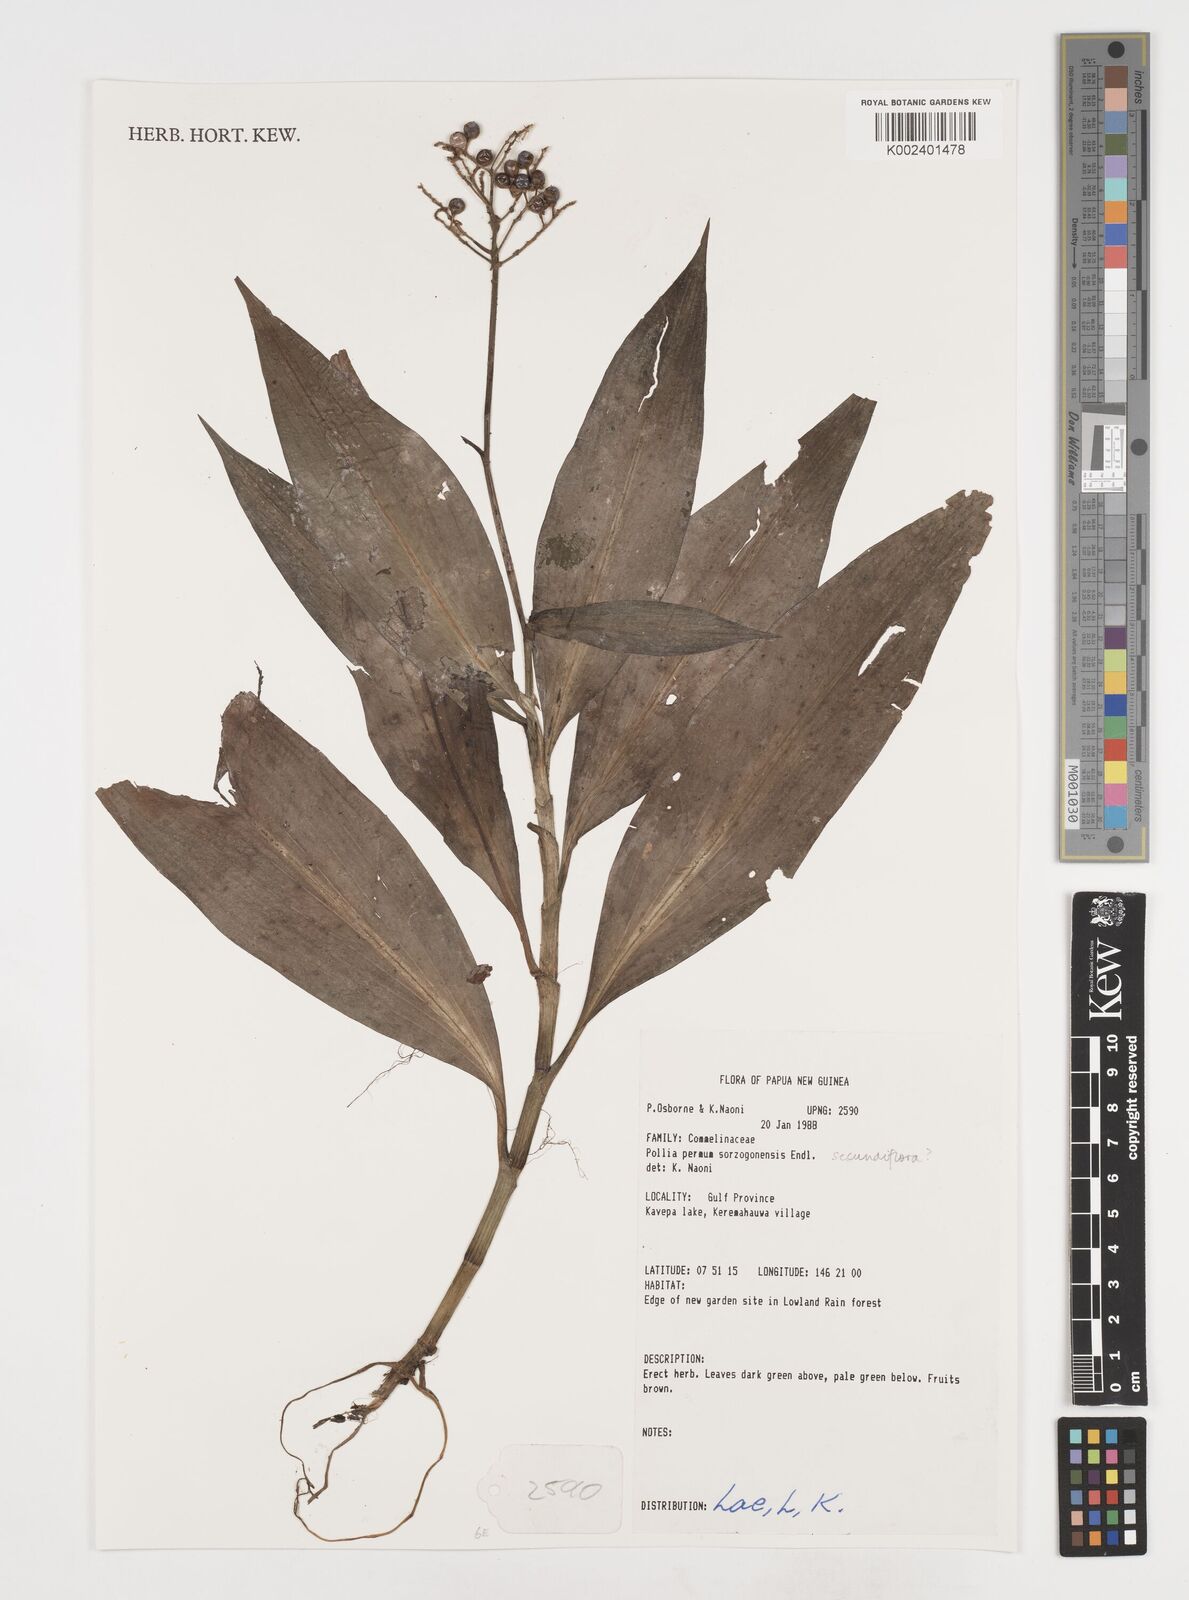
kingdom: Plantae
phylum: Tracheophyta
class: Liliopsida
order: Commelinales
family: Commelinaceae
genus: Pollia
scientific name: Pollia secundiflora
